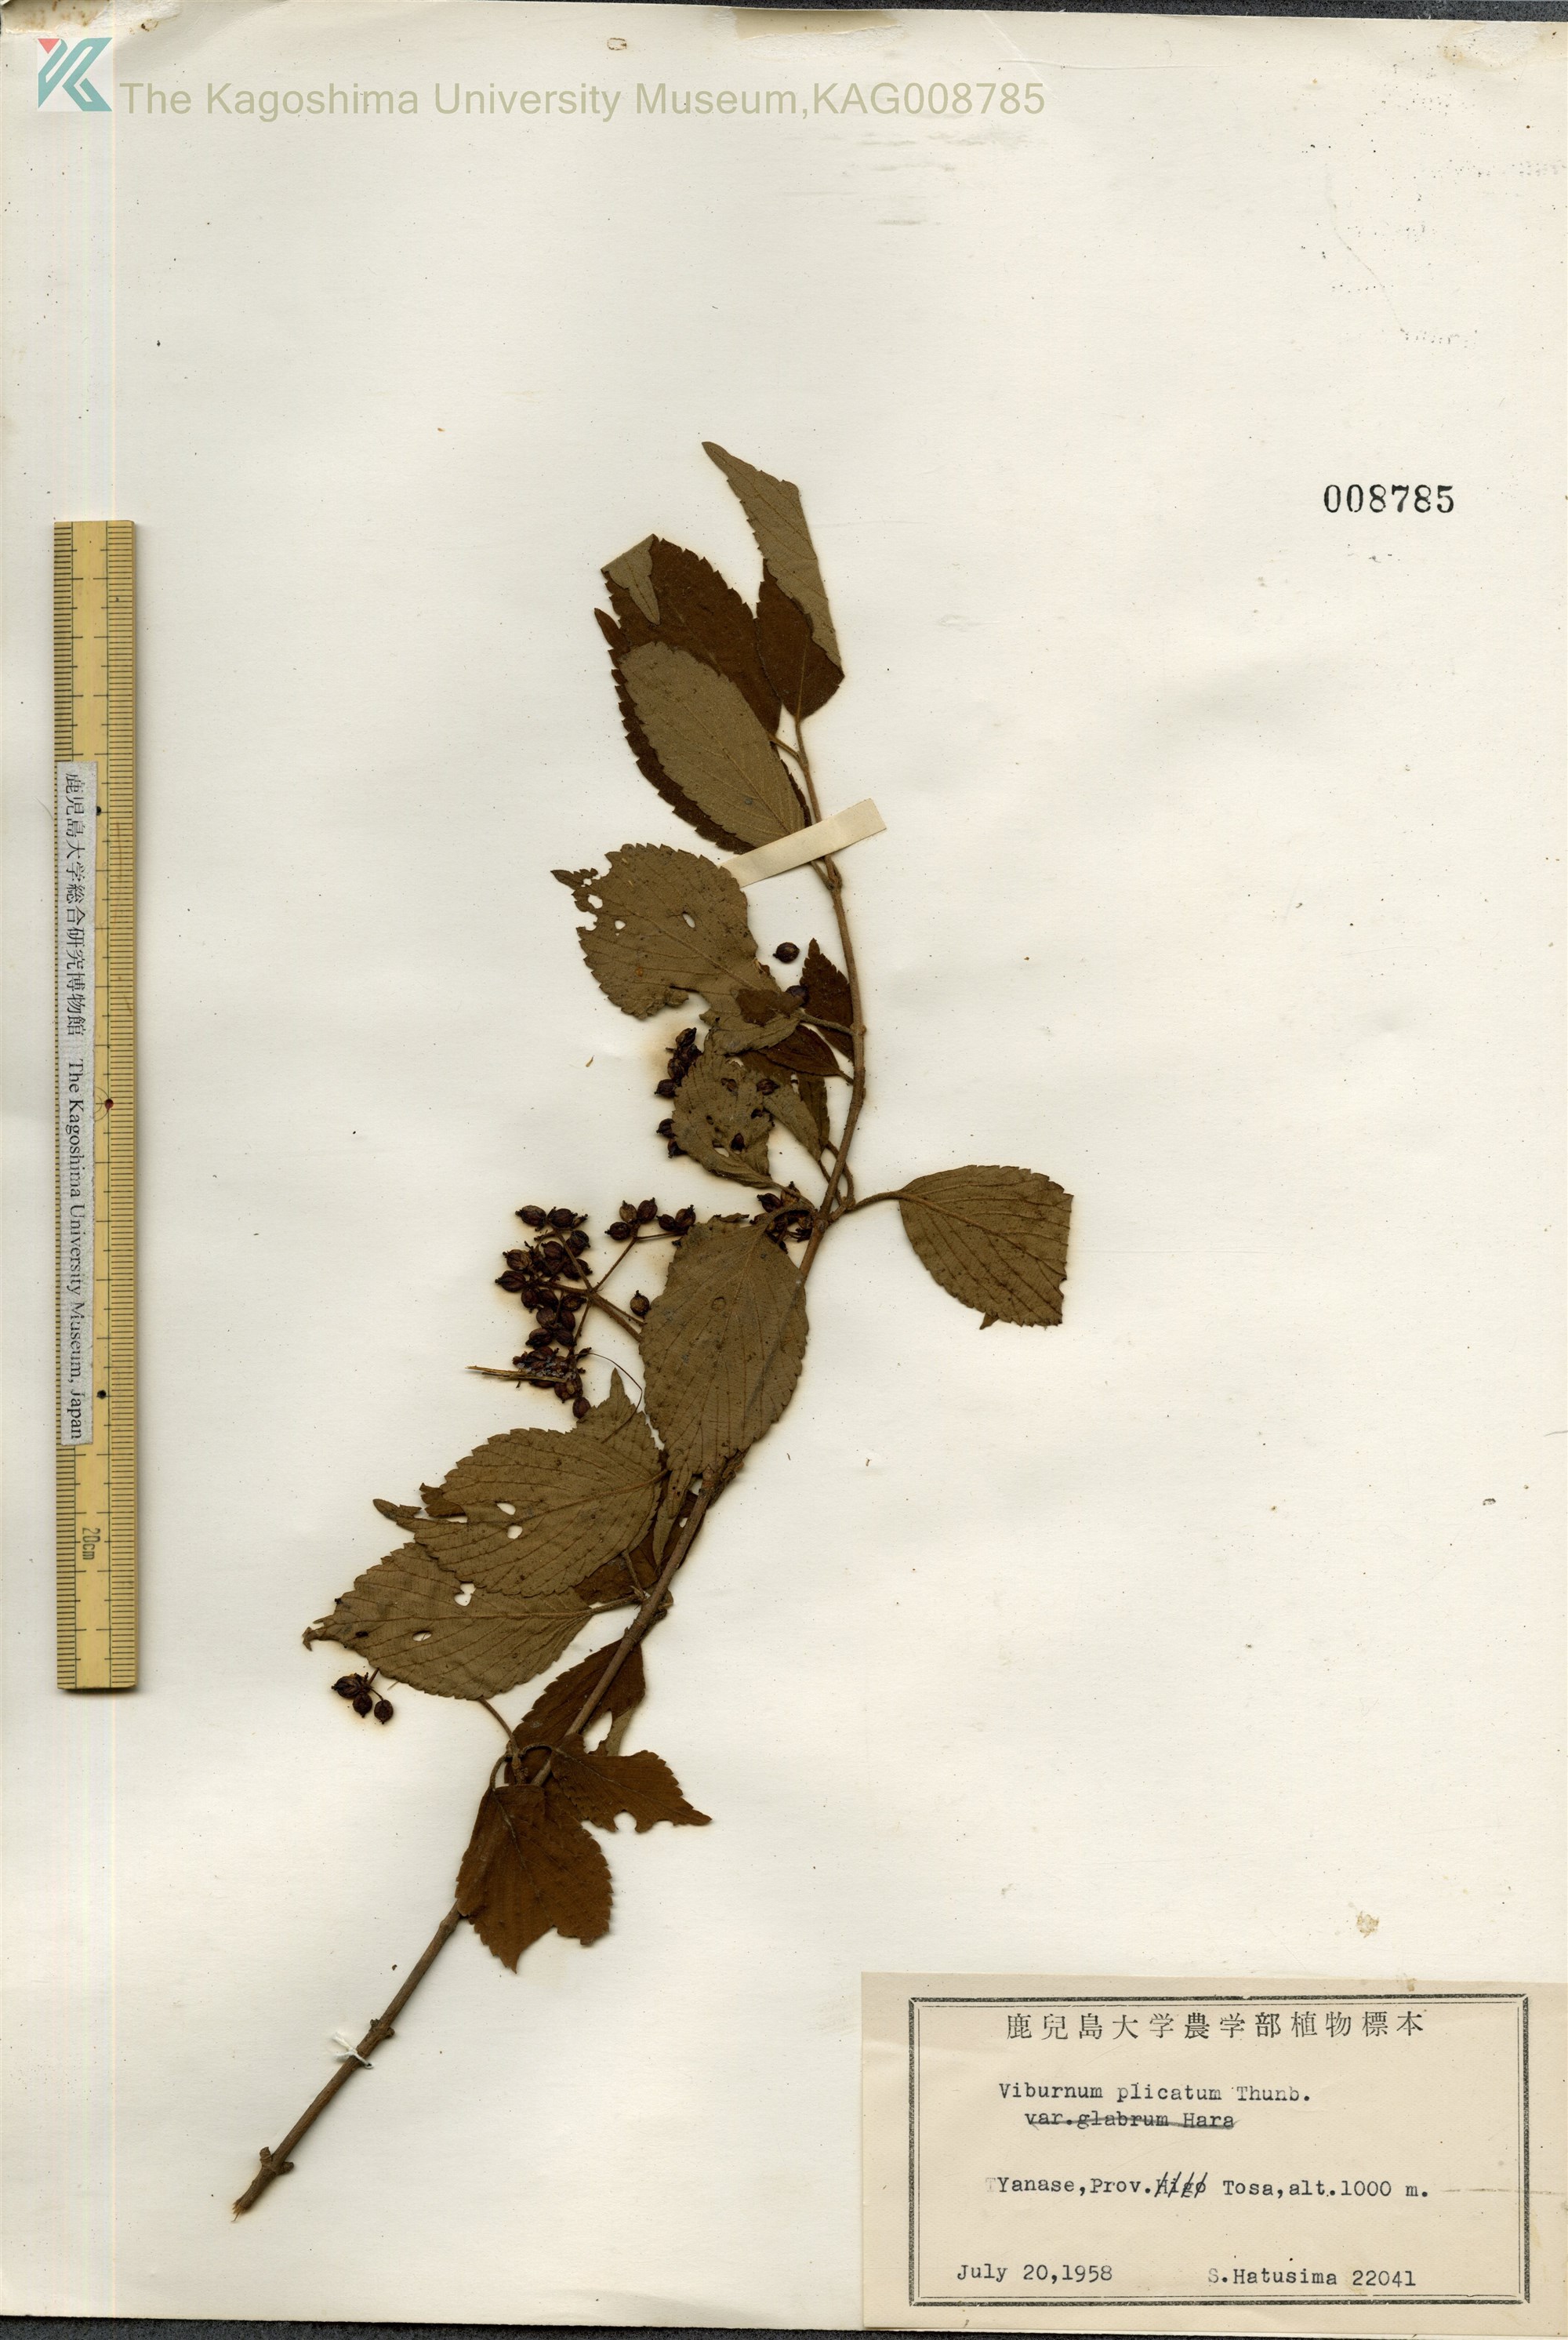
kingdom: Plantae
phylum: Tracheophyta
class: Magnoliopsida
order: Dipsacales
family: Viburnaceae
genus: Viburnum
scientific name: Viburnum plicatum
